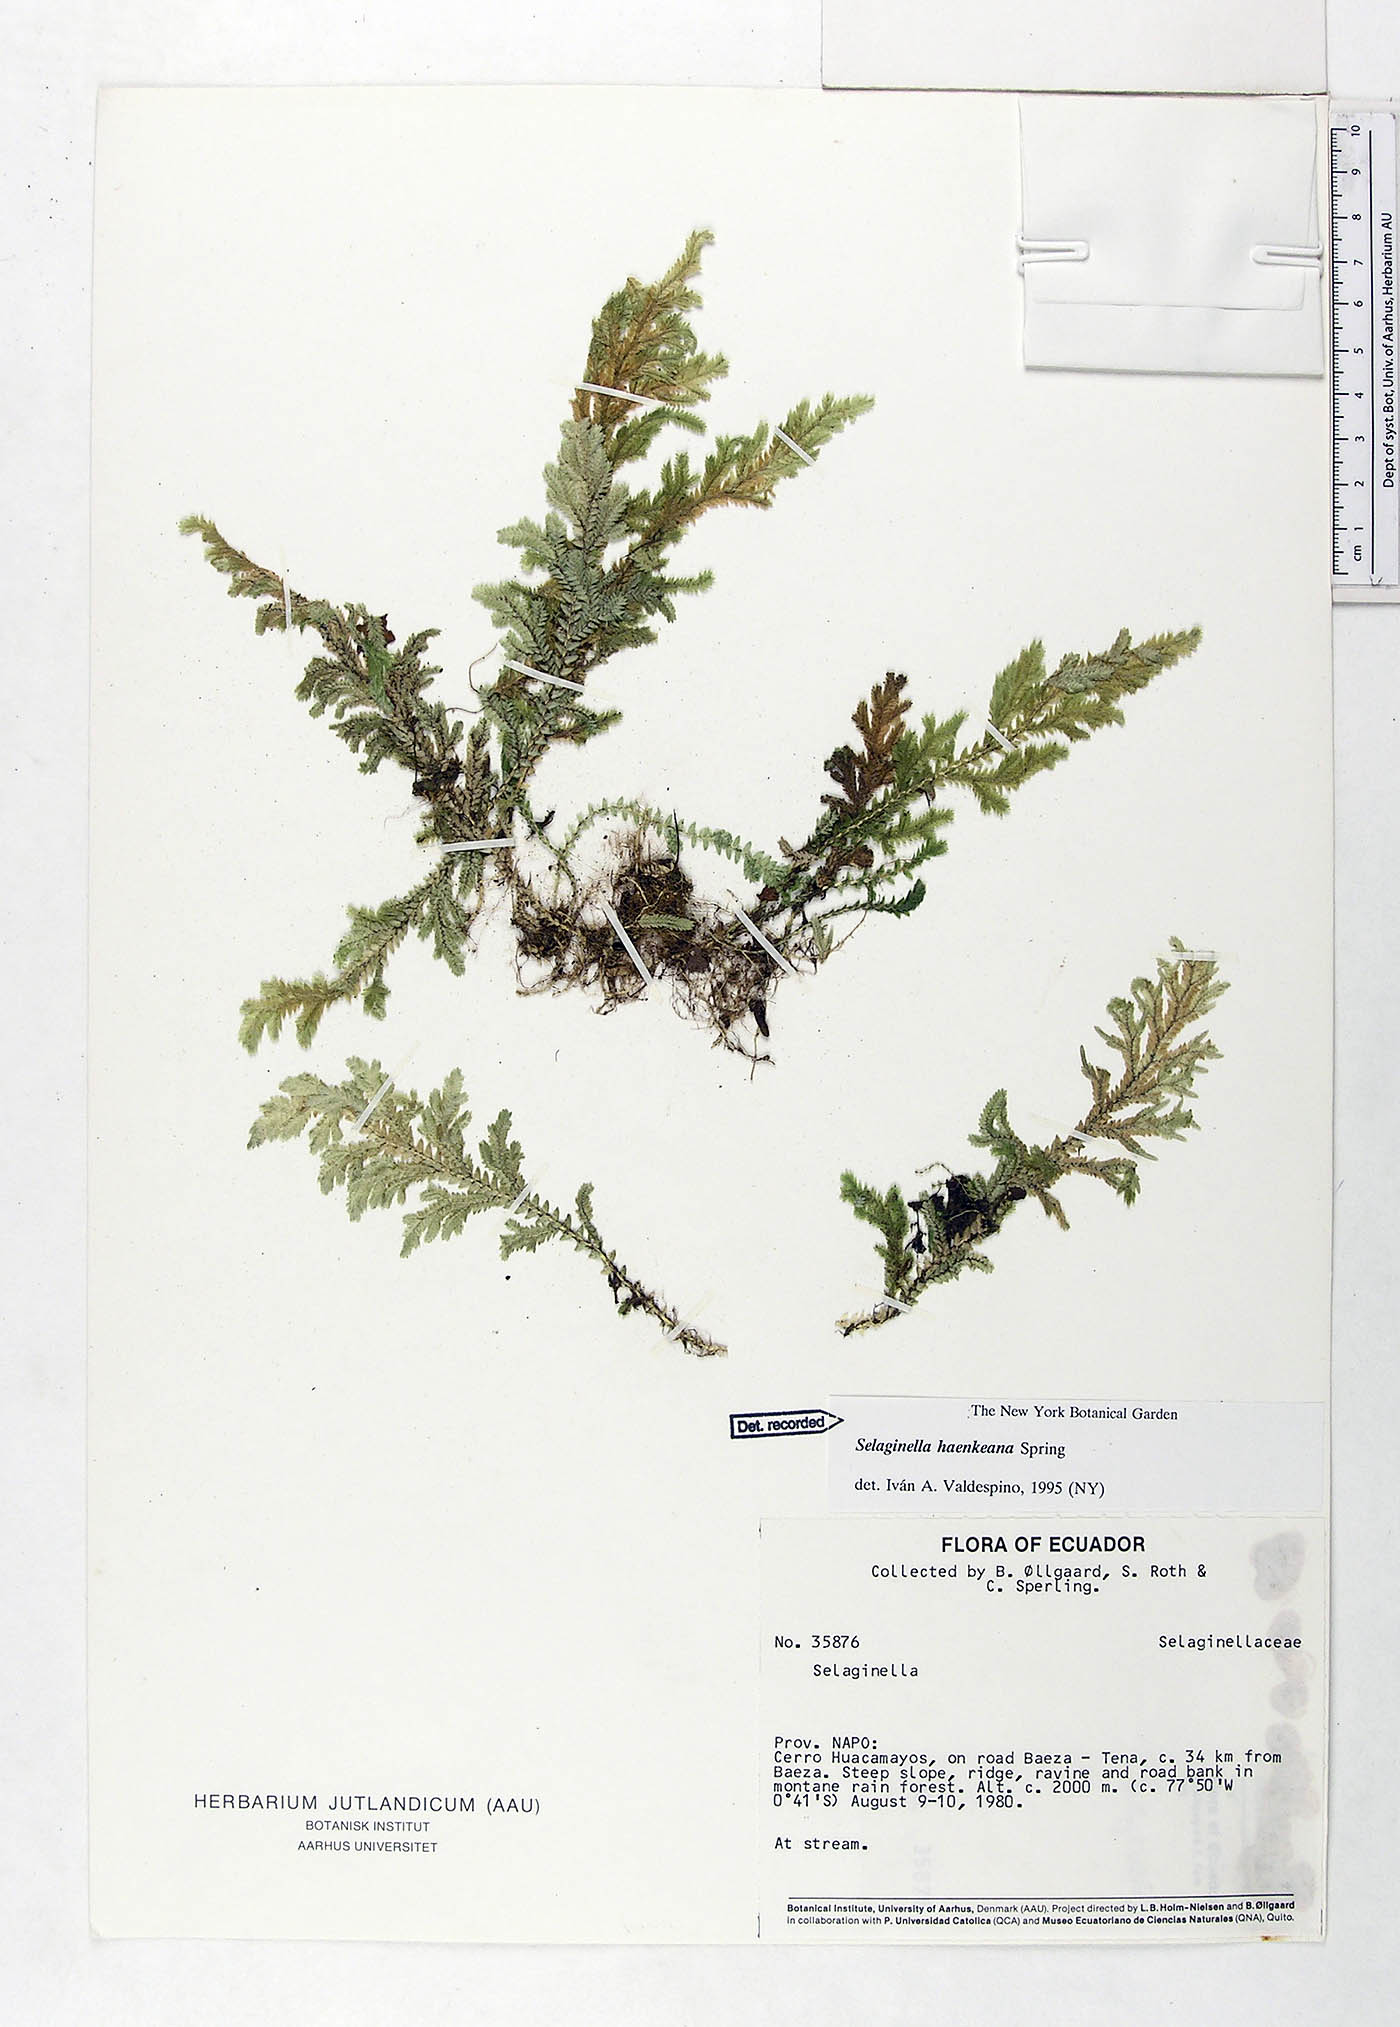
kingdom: Plantae
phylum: Tracheophyta
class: Lycopodiopsida
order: Selaginellales
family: Selaginellaceae
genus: Selaginella
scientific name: Selaginella haenkeana
